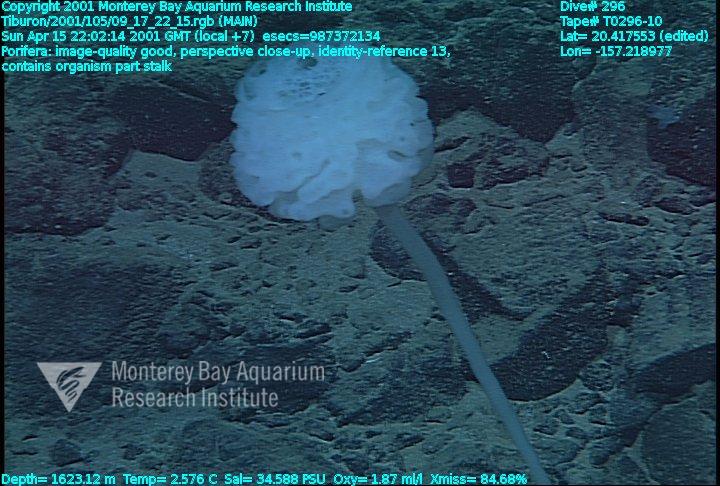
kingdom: Animalia
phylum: Porifera
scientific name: Porifera
